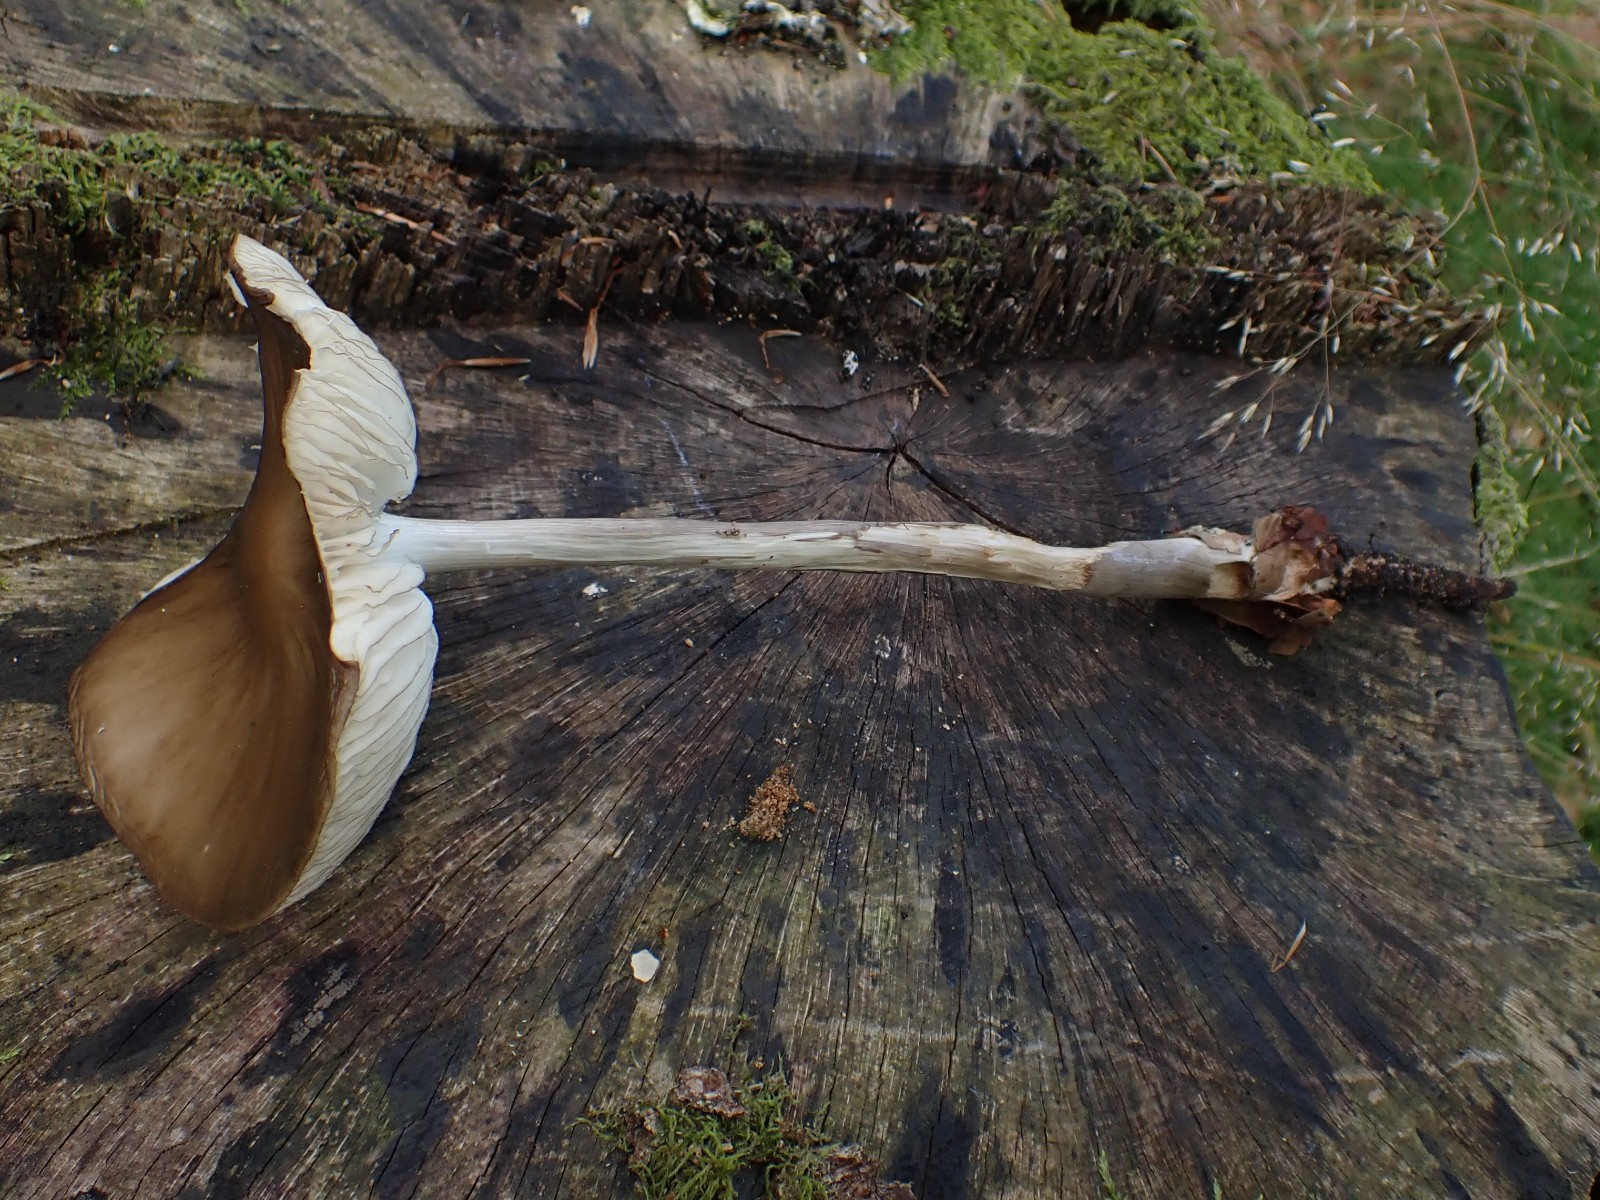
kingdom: Fungi
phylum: Basidiomycota
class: Agaricomycetes
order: Agaricales
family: Physalacriaceae
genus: Hymenopellis
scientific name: Hymenopellis radicata
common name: almindelig pælerodshat
